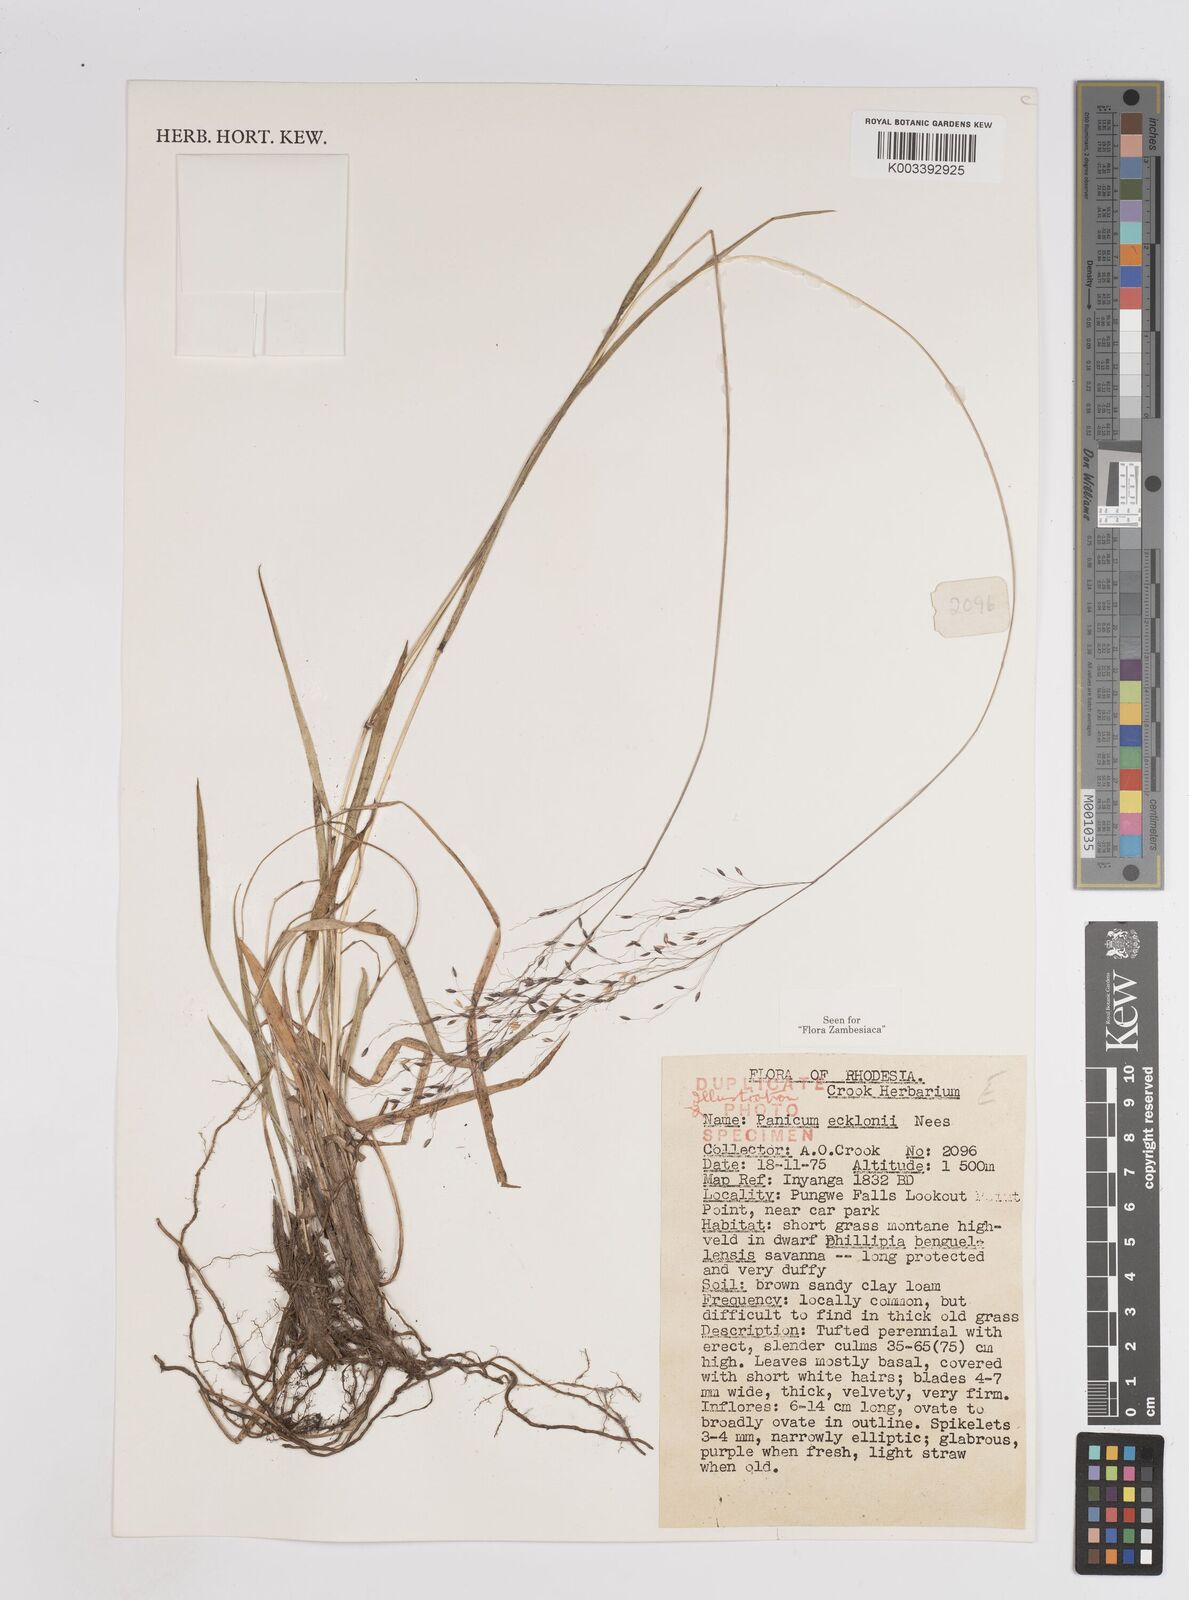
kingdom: Plantae
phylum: Tracheophyta
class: Liliopsida
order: Poales
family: Poaceae
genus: Adenochloa
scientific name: Adenochloa ecklonii
